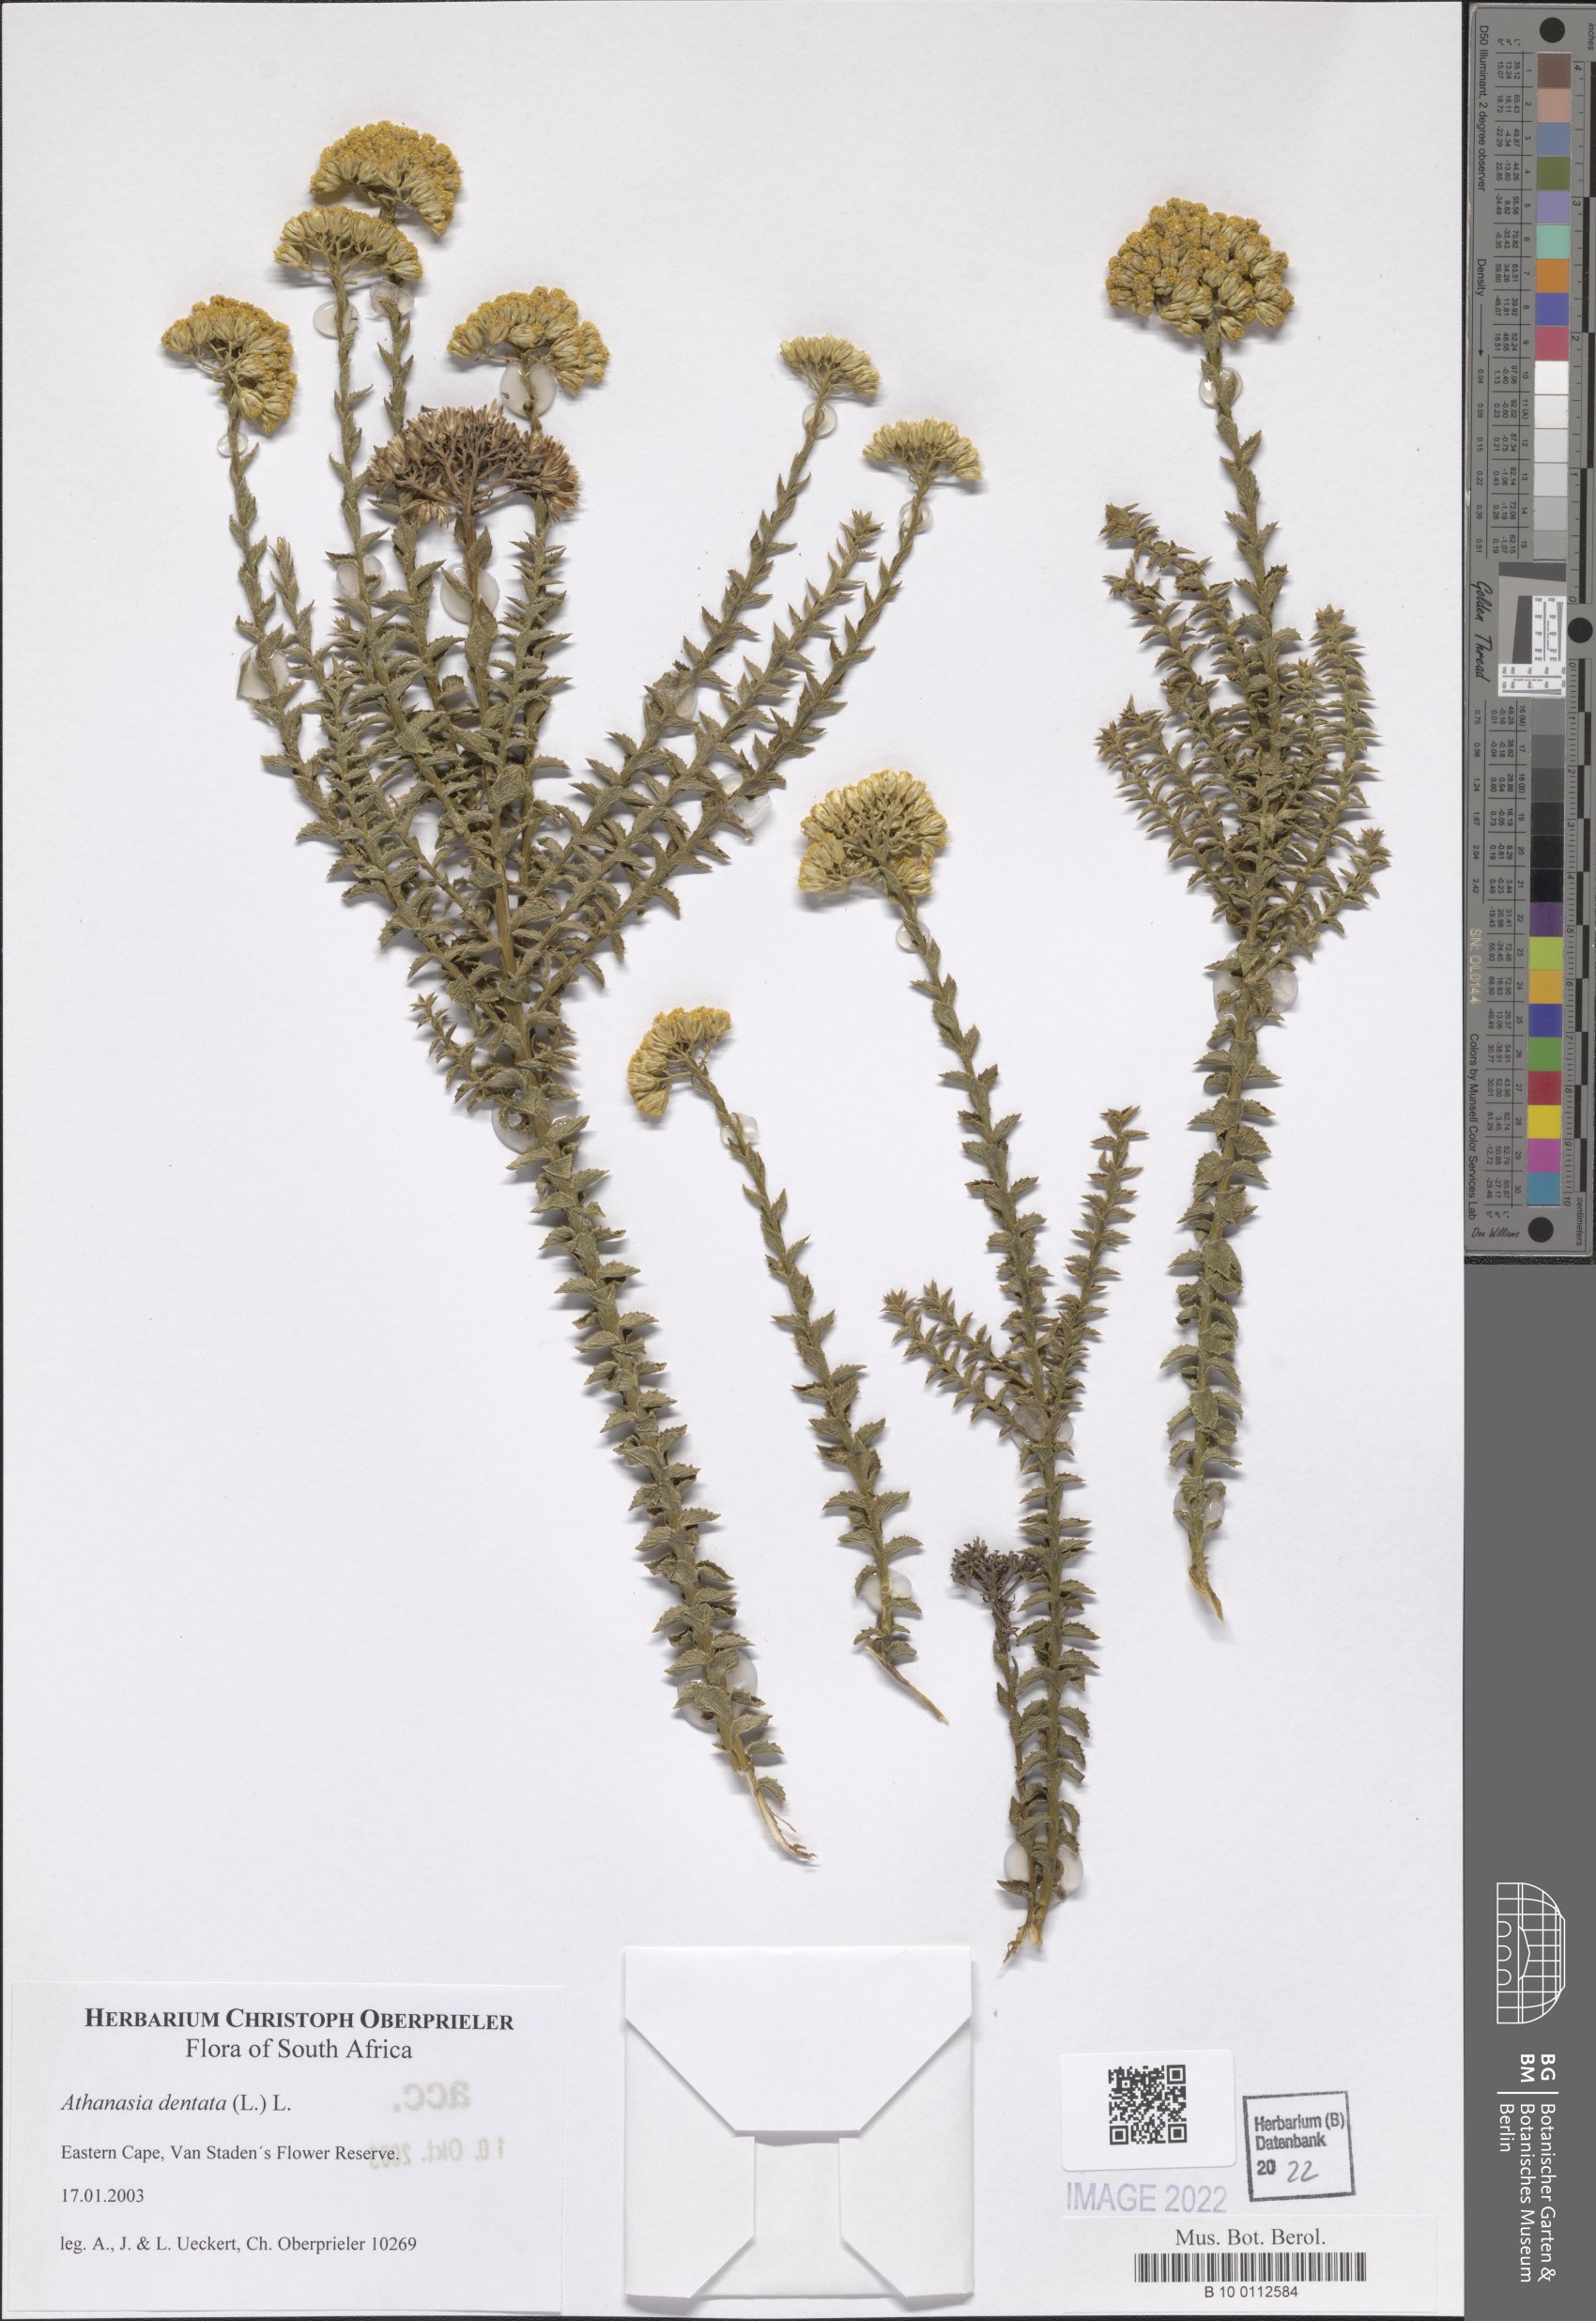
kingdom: Plantae
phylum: Tracheophyta
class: Magnoliopsida
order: Asterales
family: Asteraceae
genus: Athanasia
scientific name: Athanasia dentata
